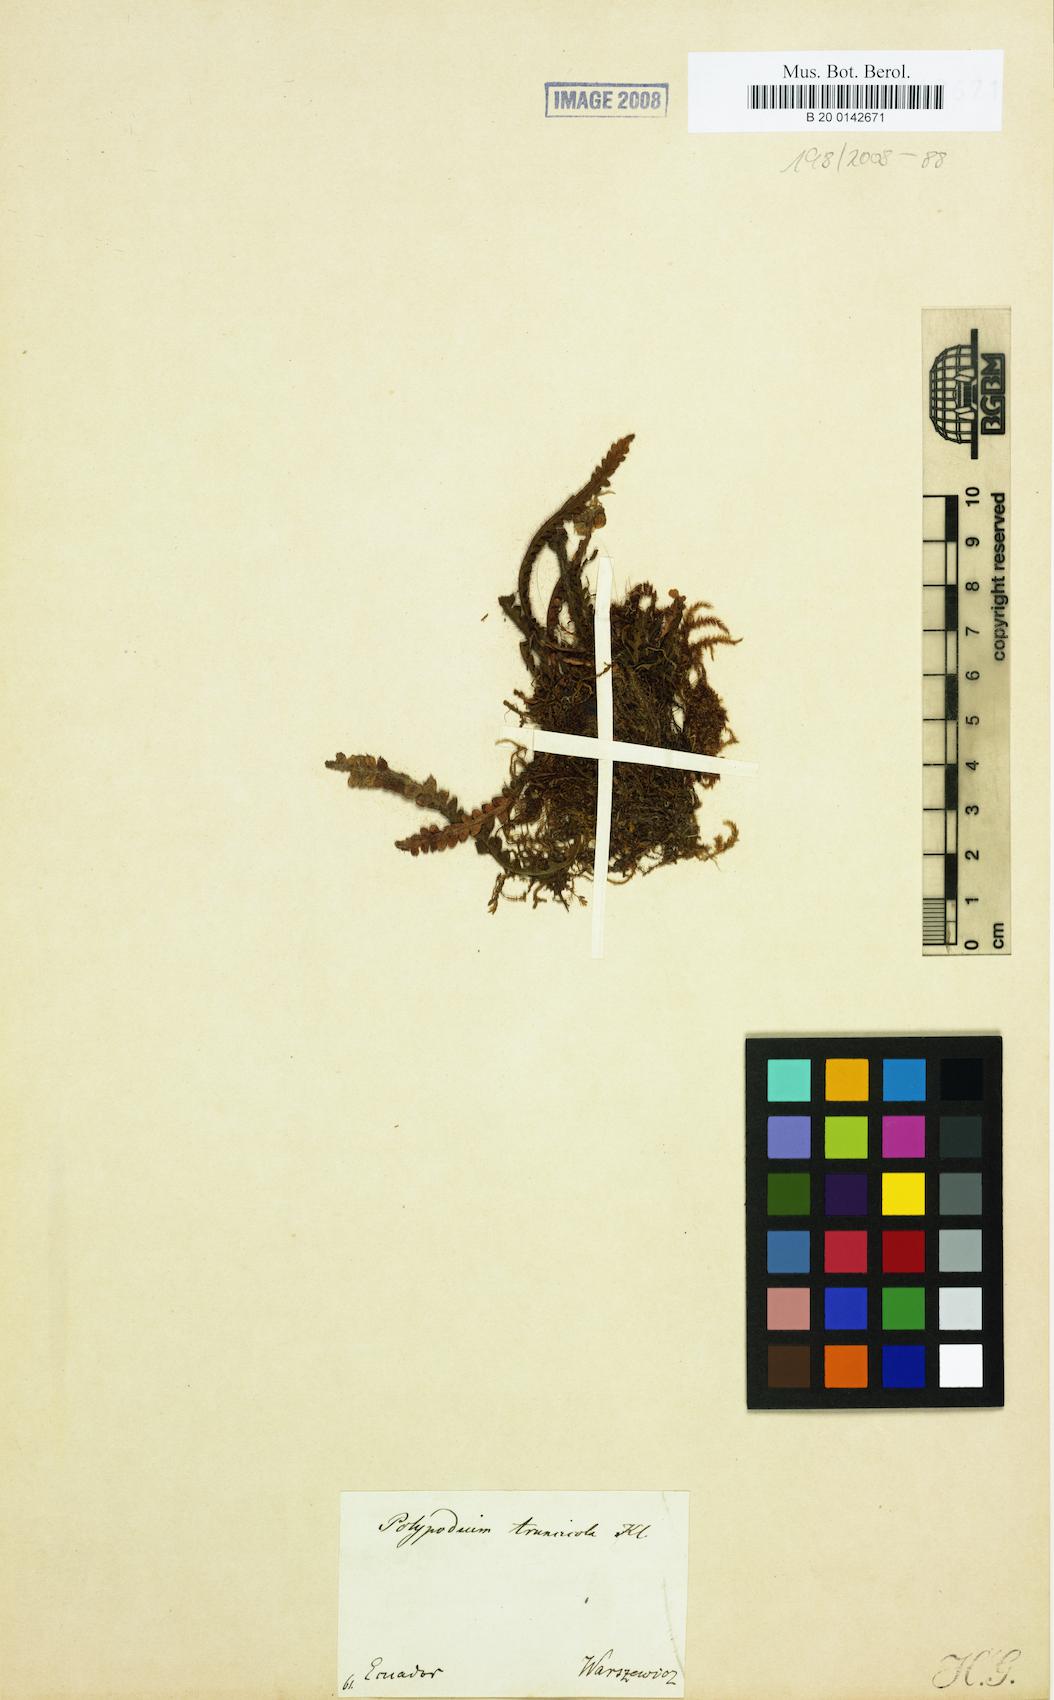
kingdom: Plantae
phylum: Tracheophyta
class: Polypodiopsida
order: Polypodiales
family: Polypodiaceae
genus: Moranopteris
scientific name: Moranopteris truncicola
